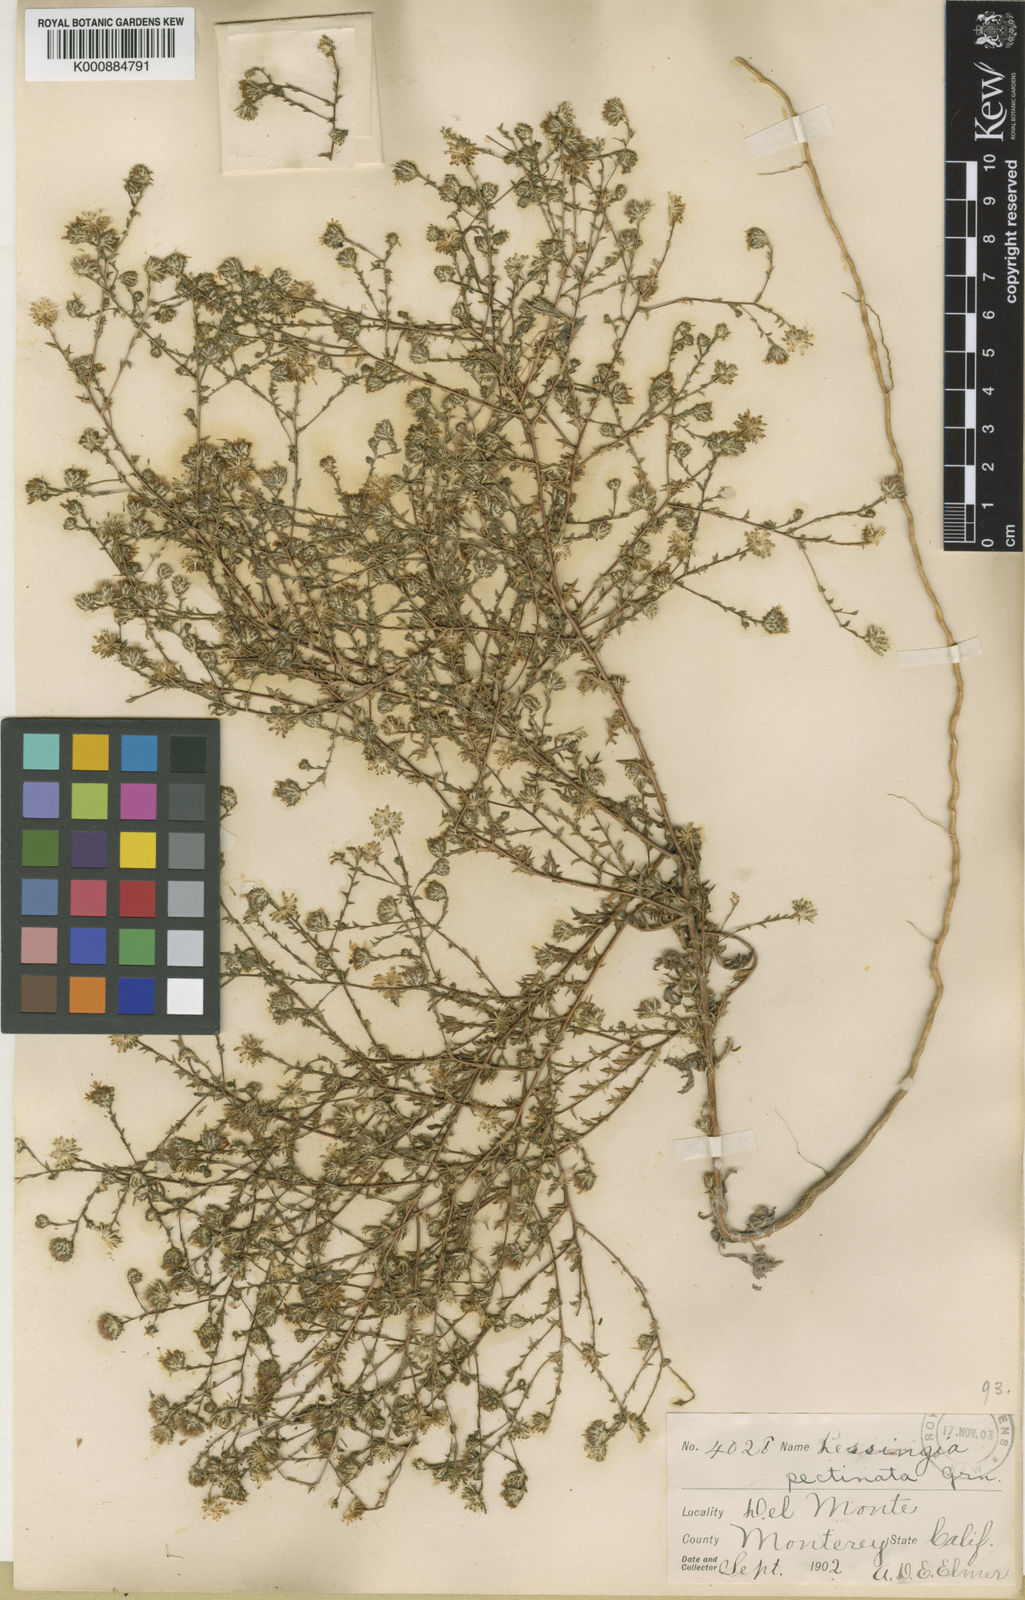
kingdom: Plantae
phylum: Tracheophyta
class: Magnoliopsida
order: Asterales
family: Asteraceae
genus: Lessingia
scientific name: Lessingia pectinata
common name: Valley lessingia
